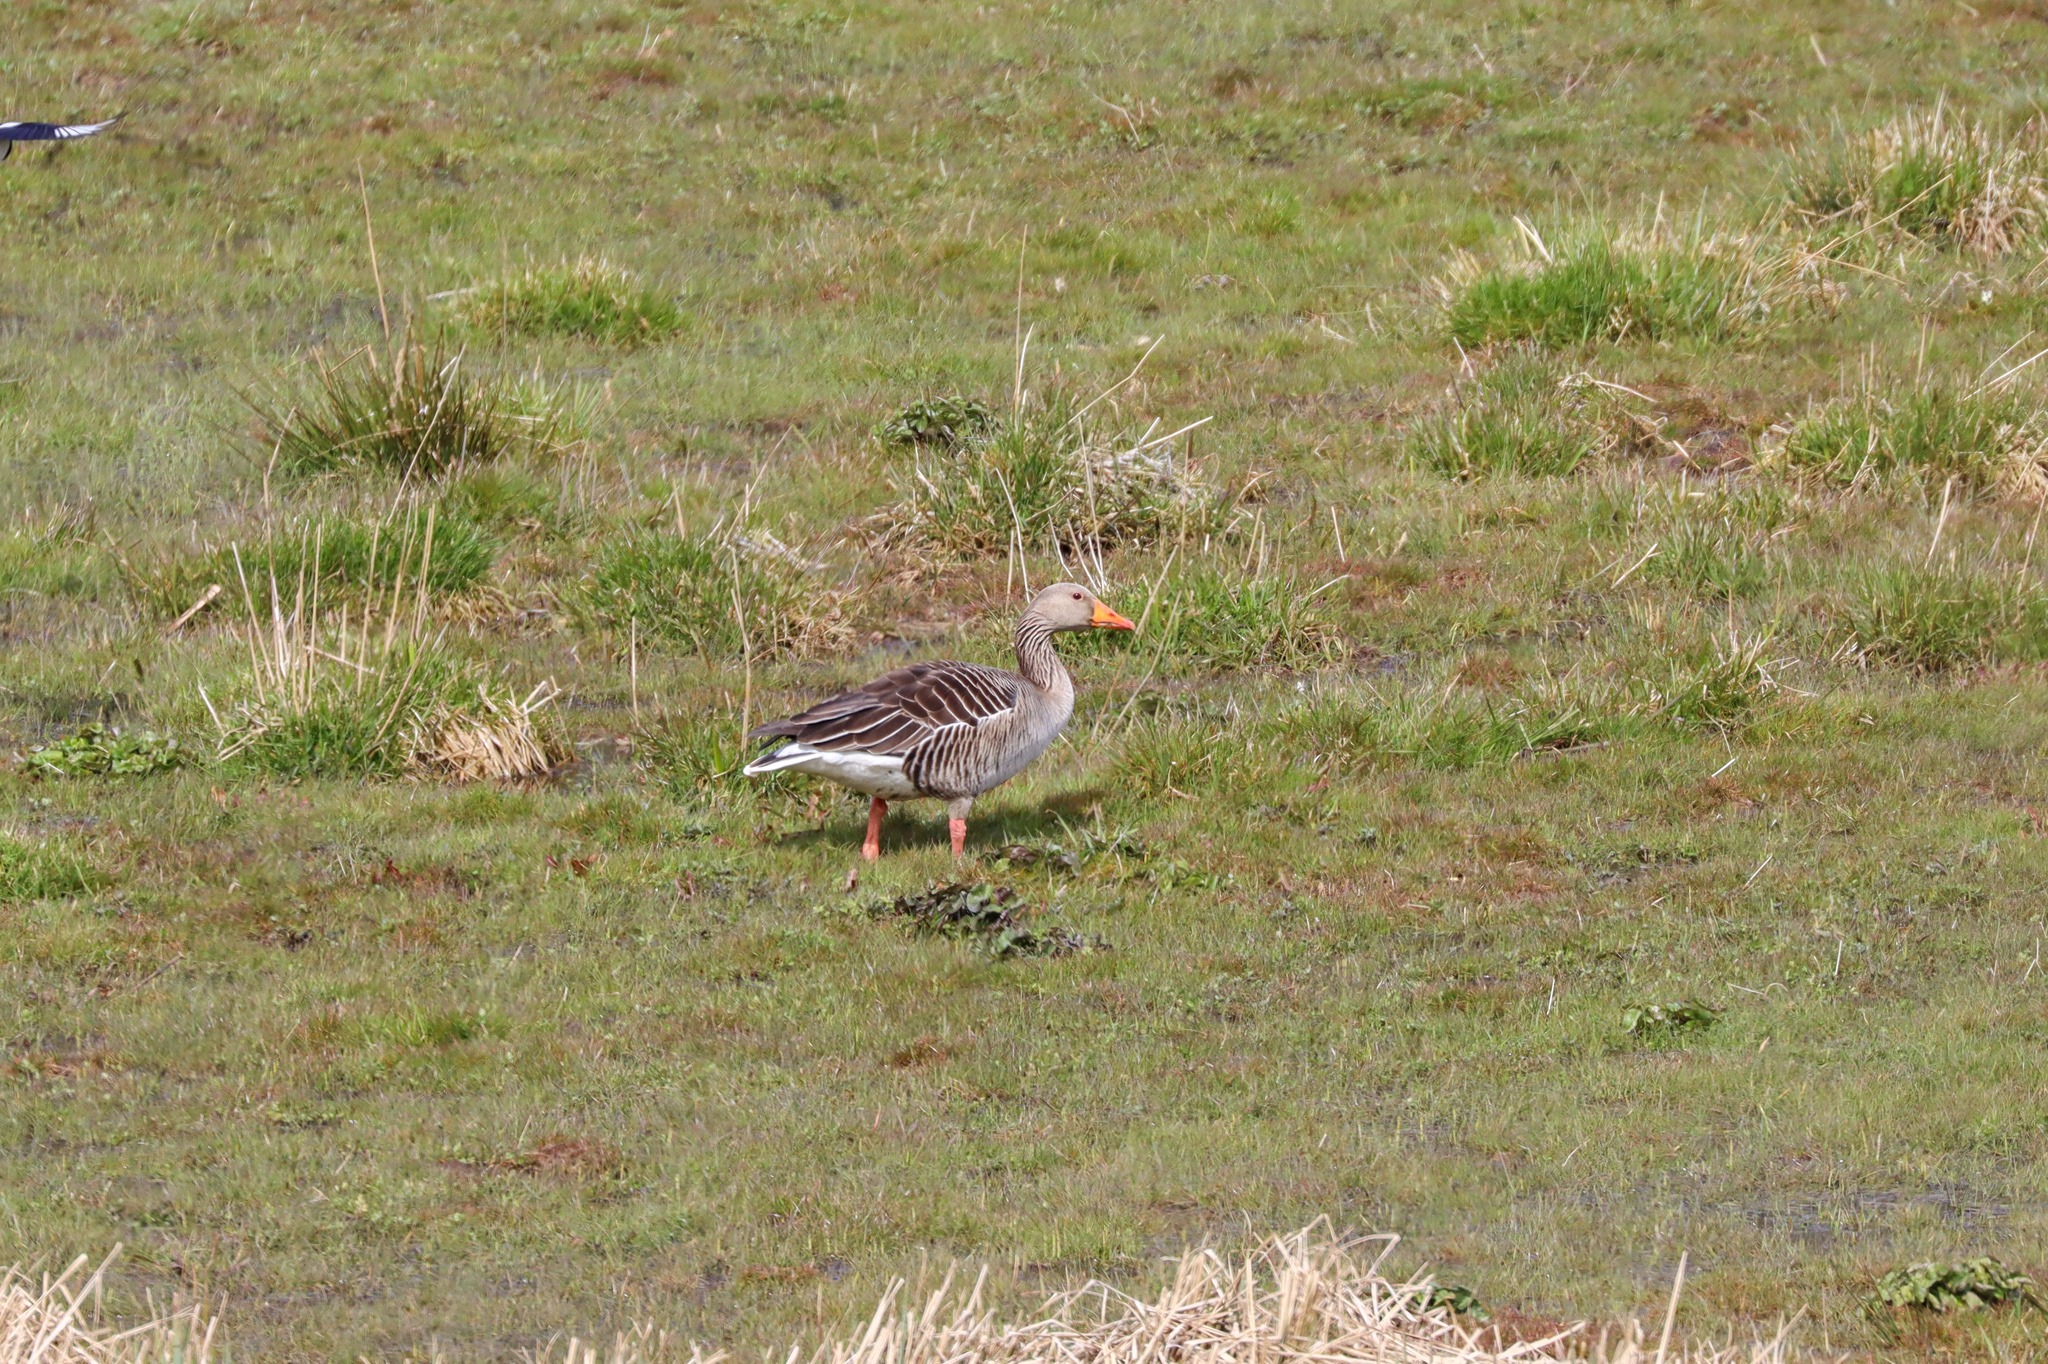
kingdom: Animalia
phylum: Chordata
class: Aves
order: Anseriformes
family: Anatidae
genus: Anser
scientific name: Anser anser
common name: Grågås
